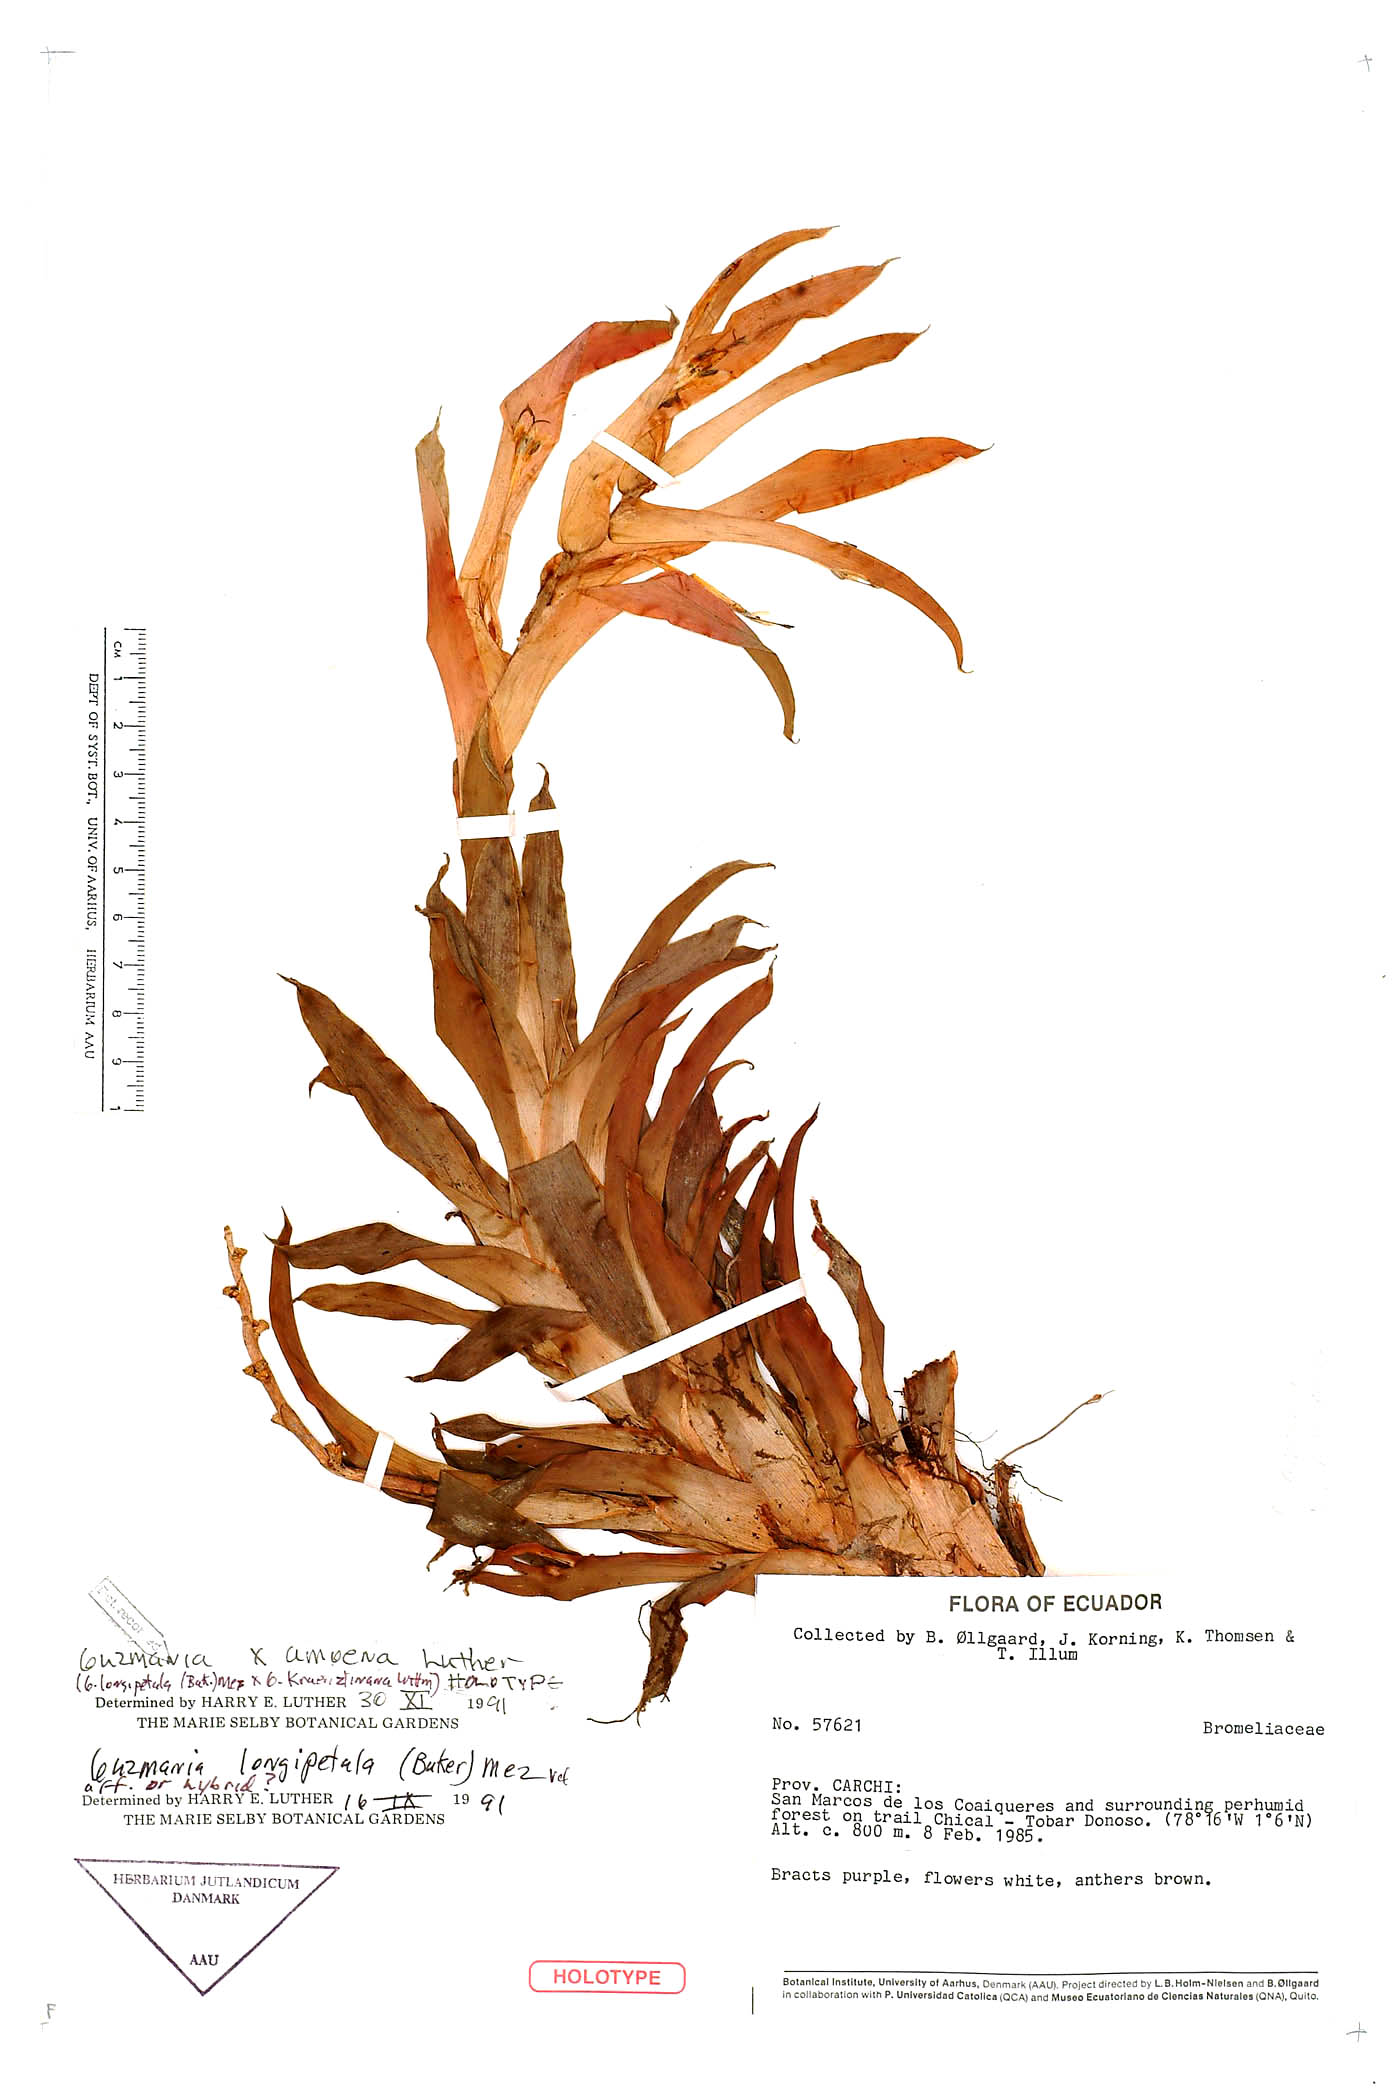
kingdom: Plantae
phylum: Tracheophyta
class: Liliopsida
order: Poales
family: Bromeliaceae
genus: Guzmania
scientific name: Guzmania amoena
